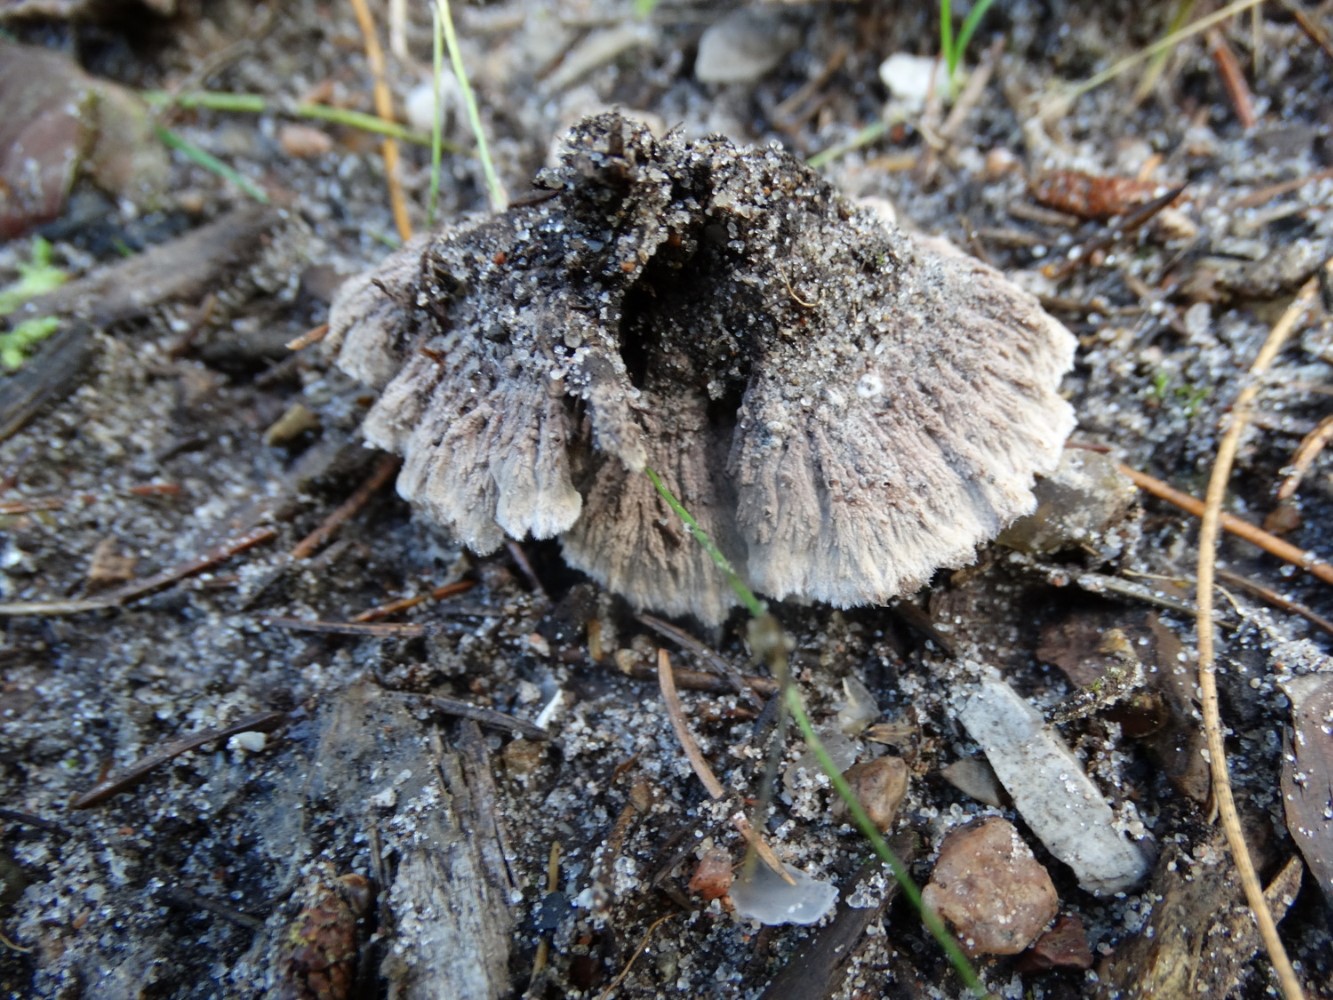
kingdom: Fungi
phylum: Basidiomycota
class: Agaricomycetes
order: Thelephorales
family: Thelephoraceae
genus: Thelephora
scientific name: Thelephora terrestris
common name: fliget frynsesvamp
